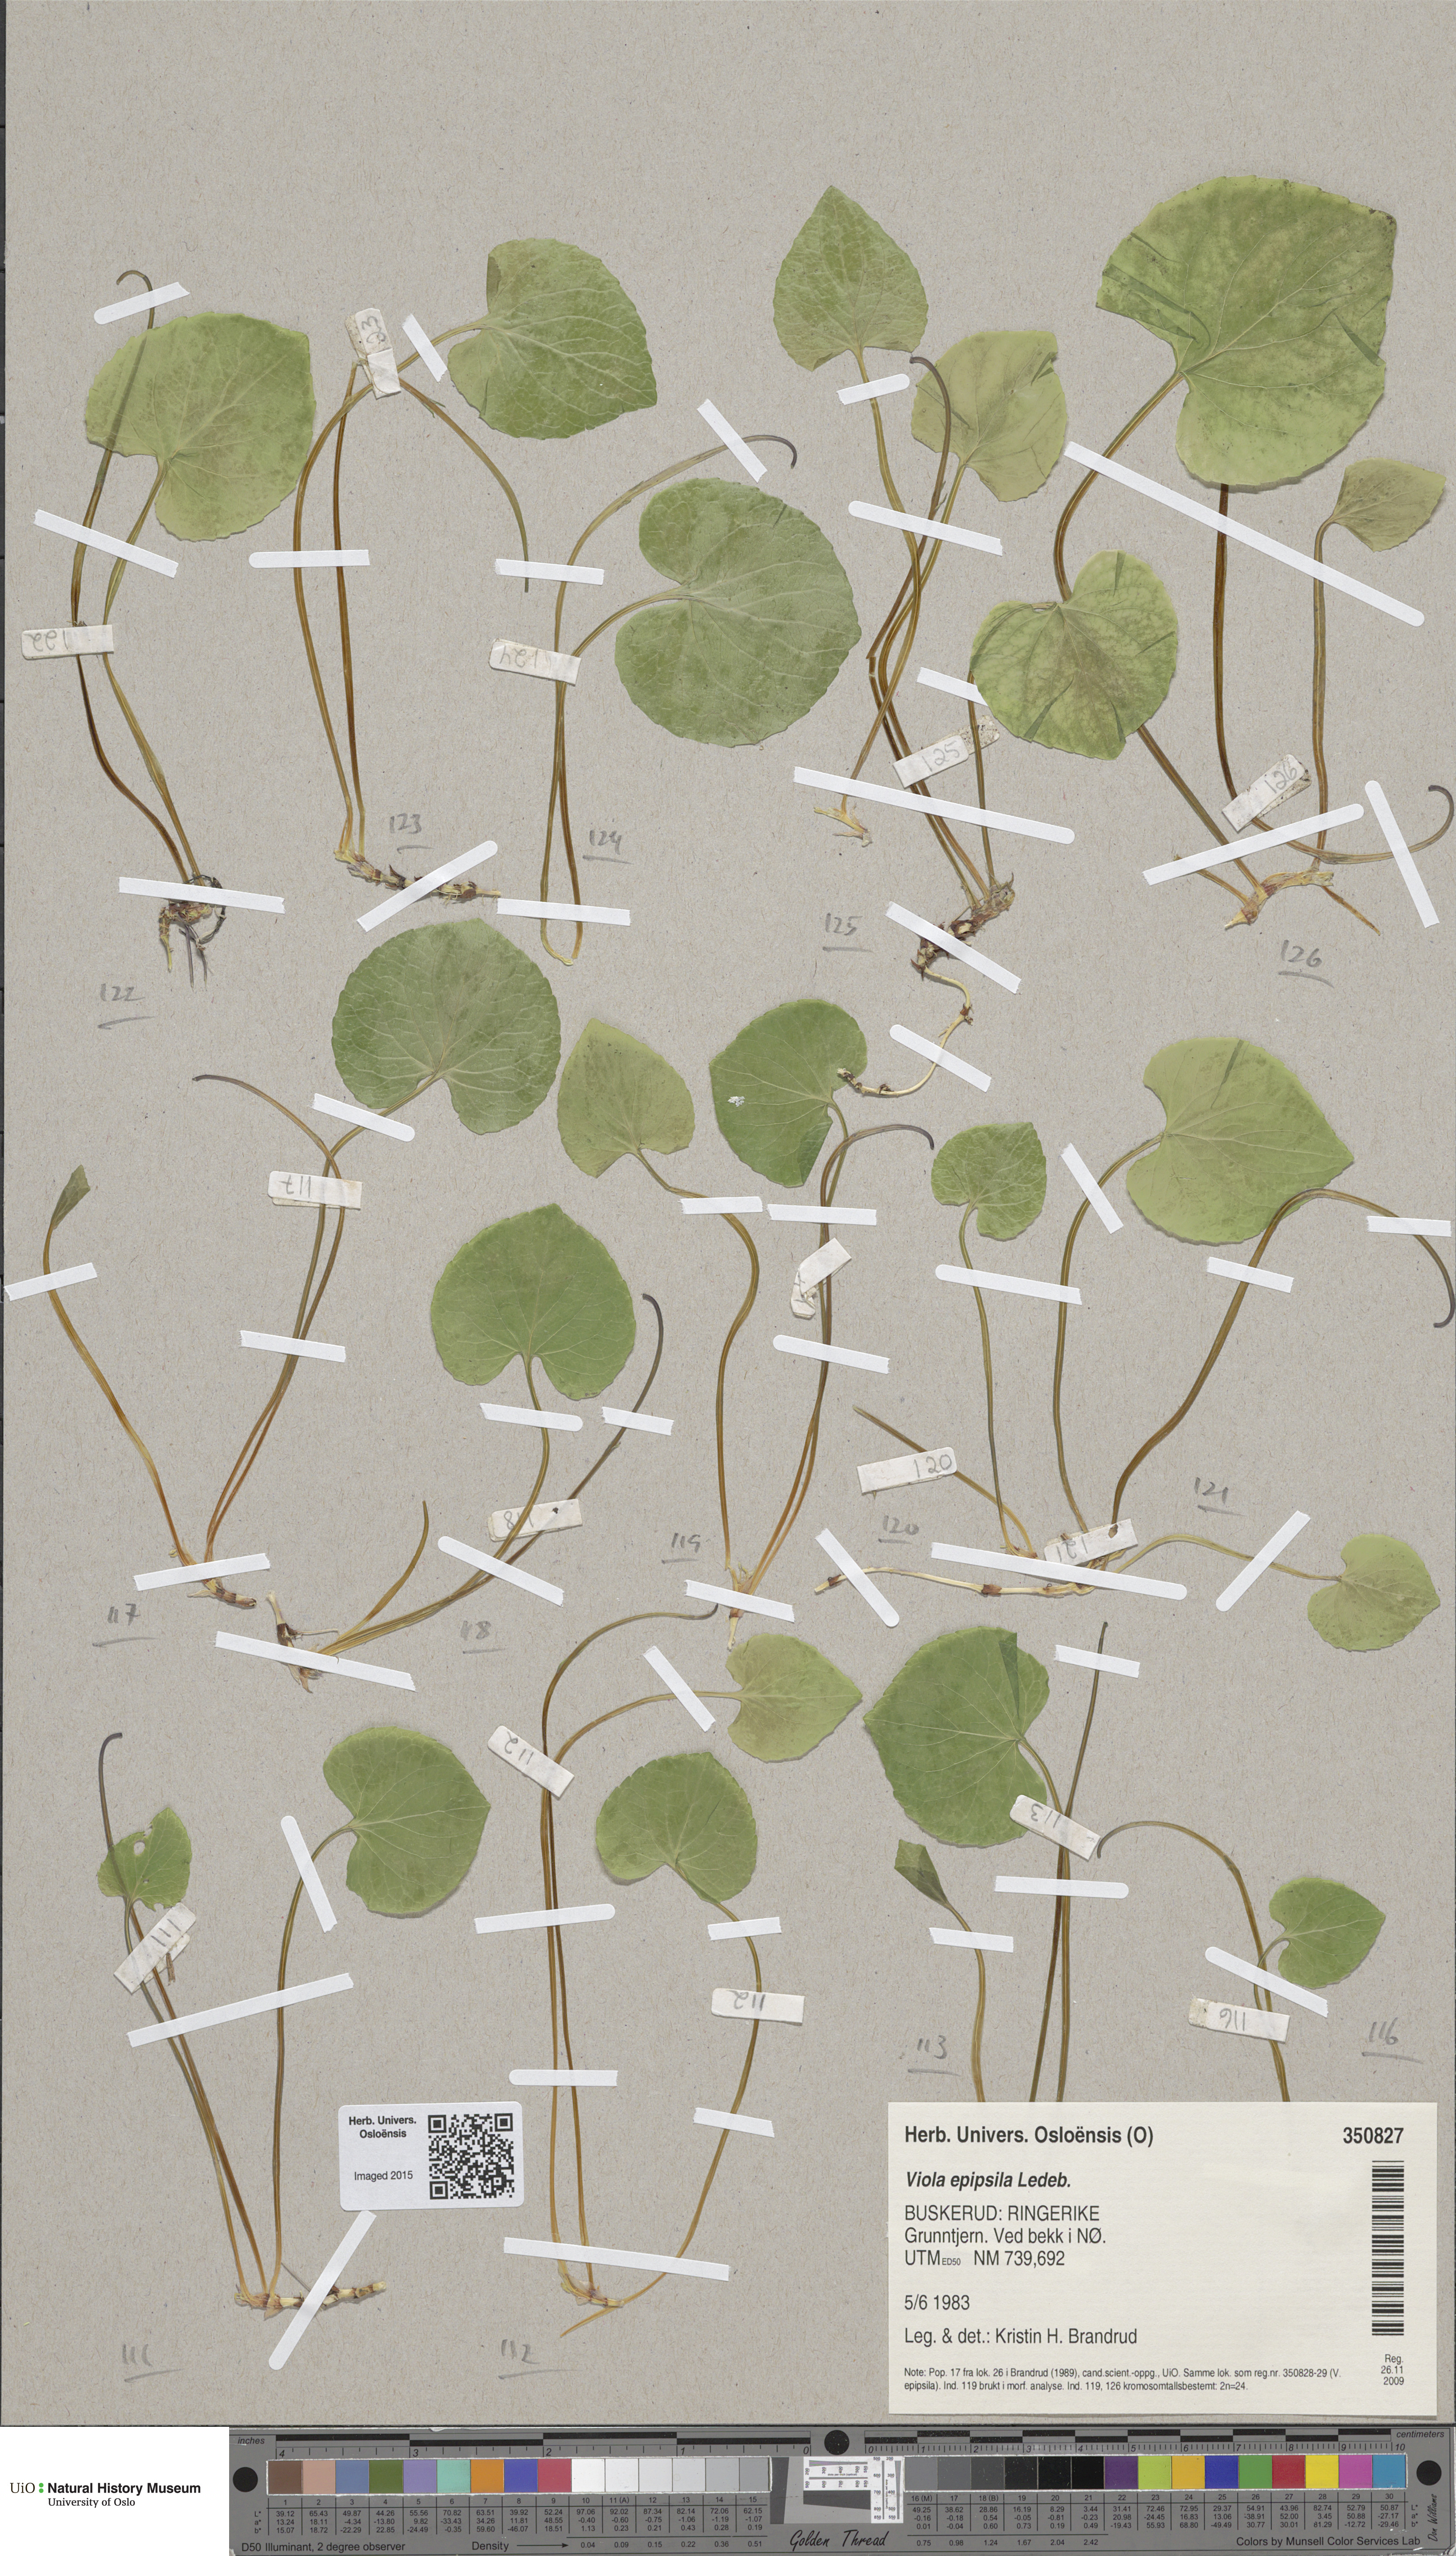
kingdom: Plantae
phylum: Tracheophyta
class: Magnoliopsida
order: Malpighiales
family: Violaceae
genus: Viola
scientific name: Viola epipsila
